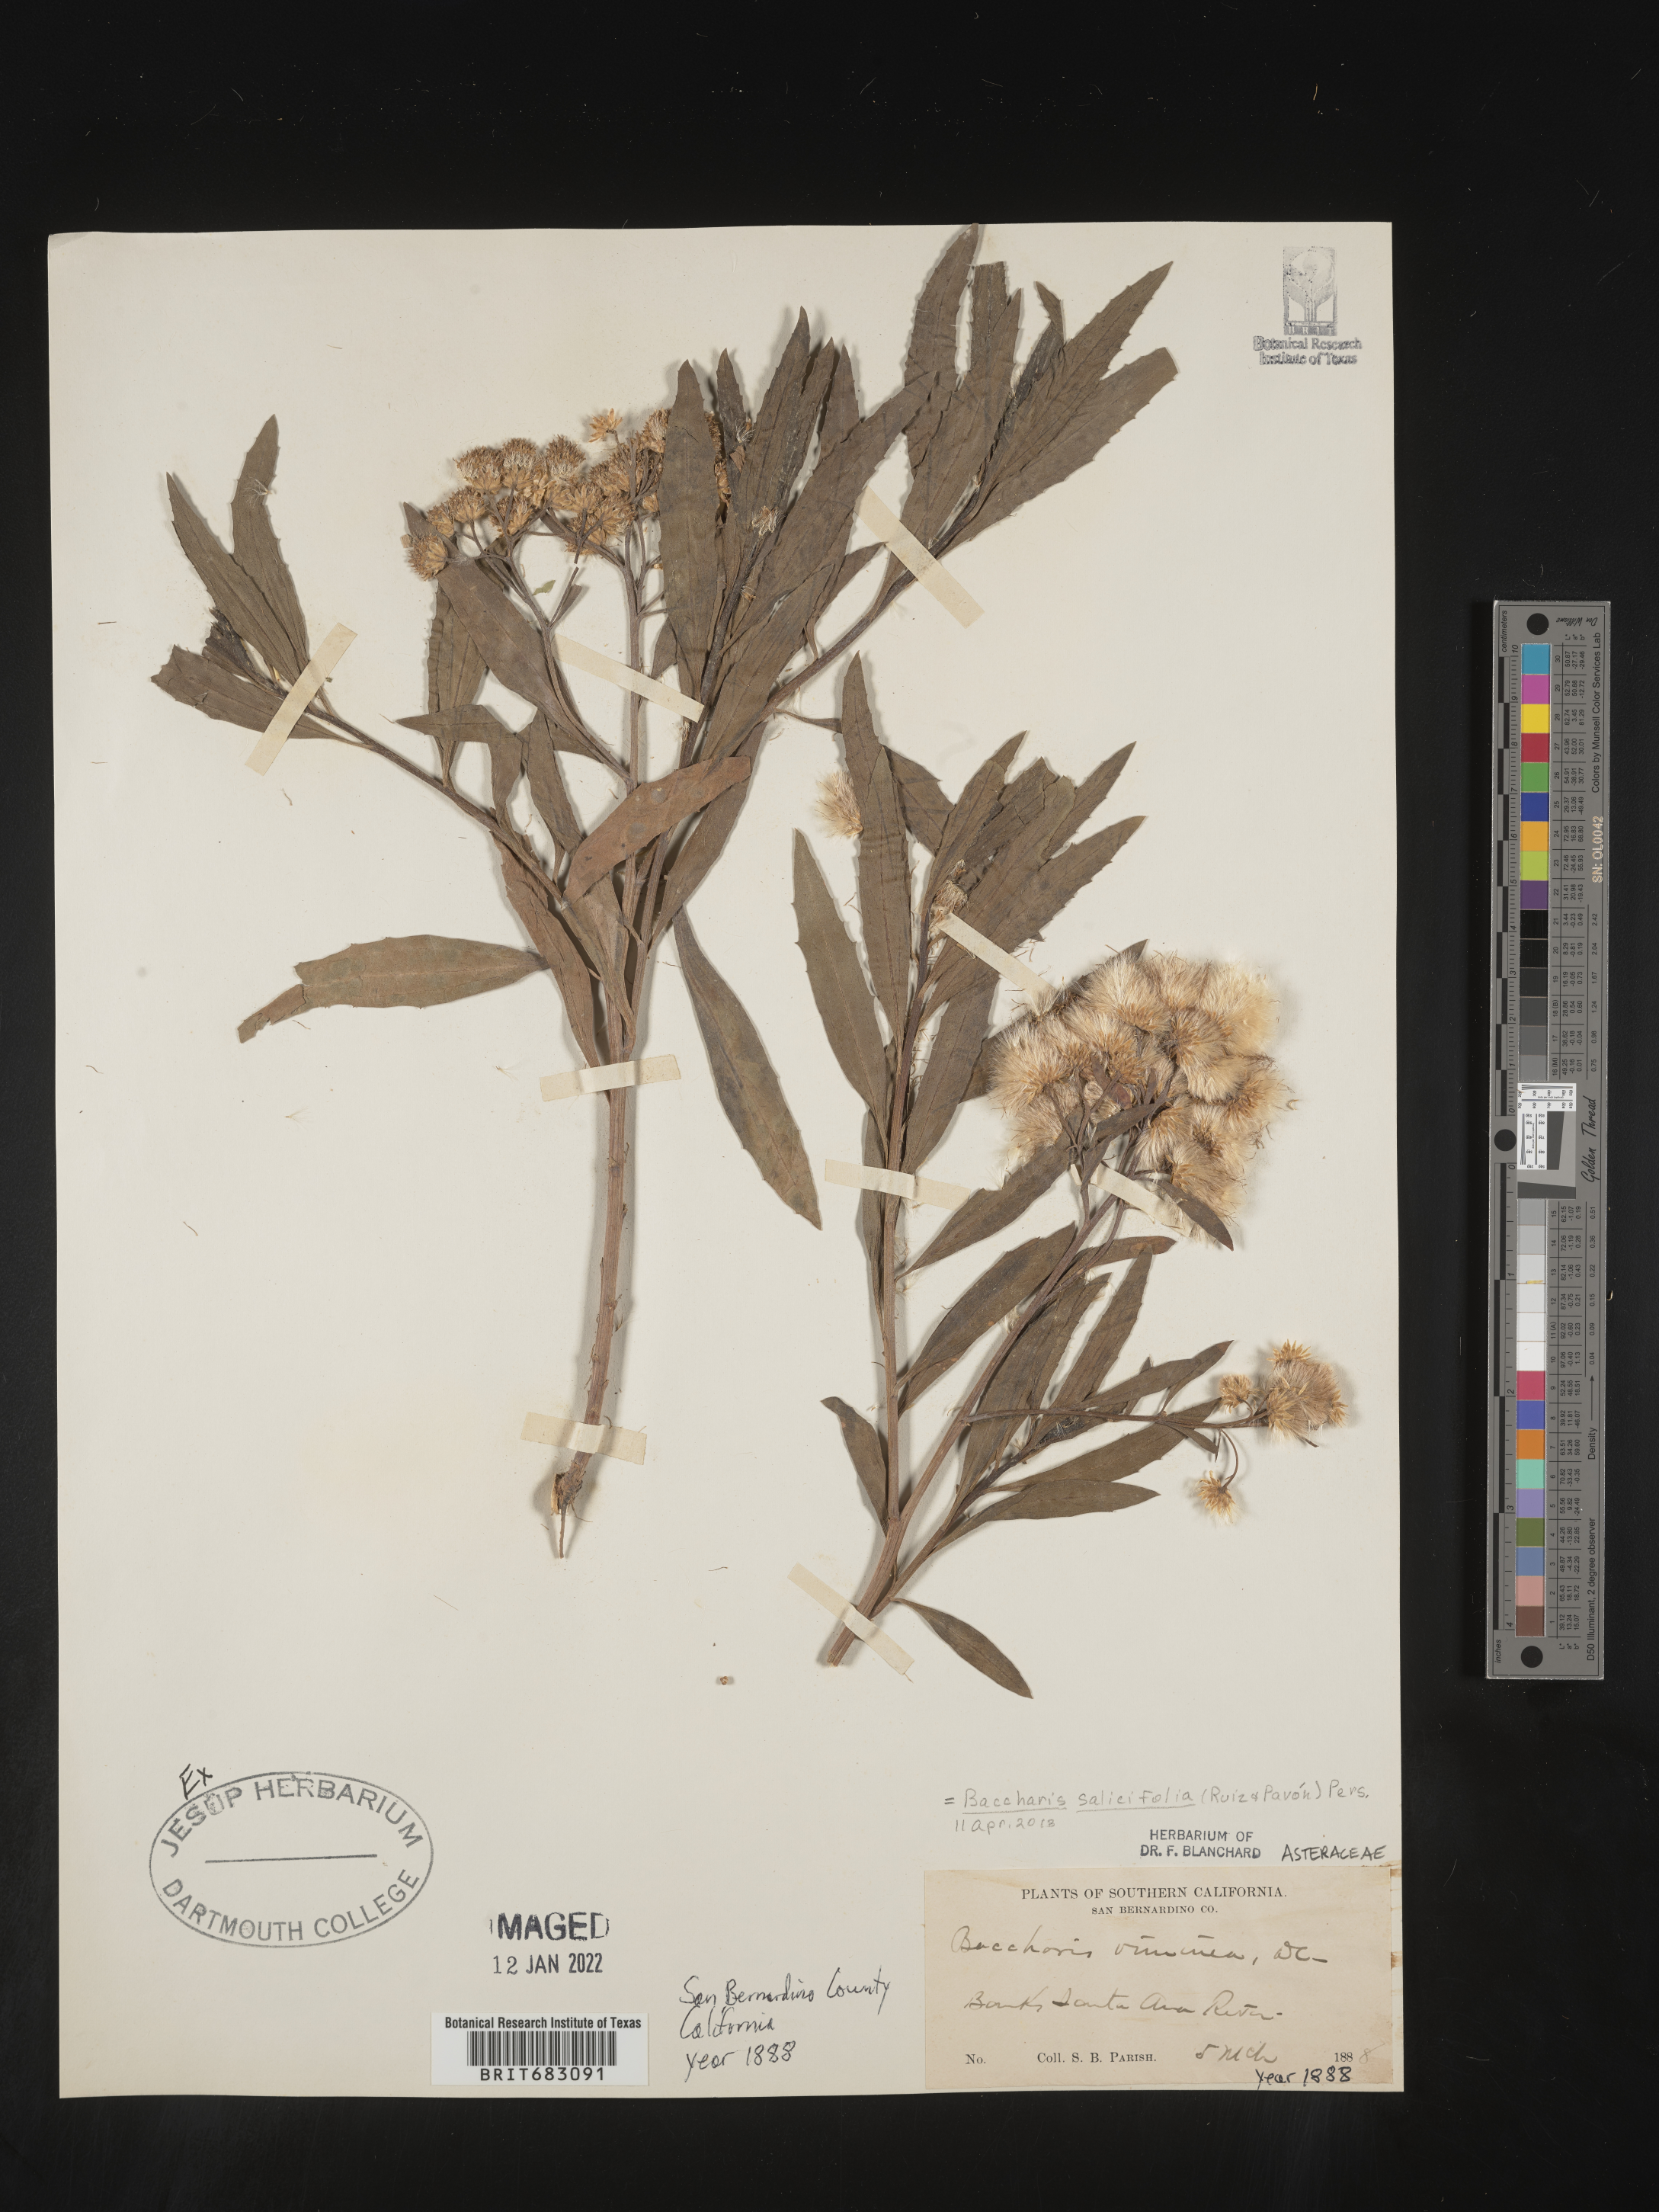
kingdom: Plantae
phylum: Tracheophyta
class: Magnoliopsida
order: Asterales
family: Asteraceae
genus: Baccharis
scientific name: Baccharis salicifolia
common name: Sticky baccharis
